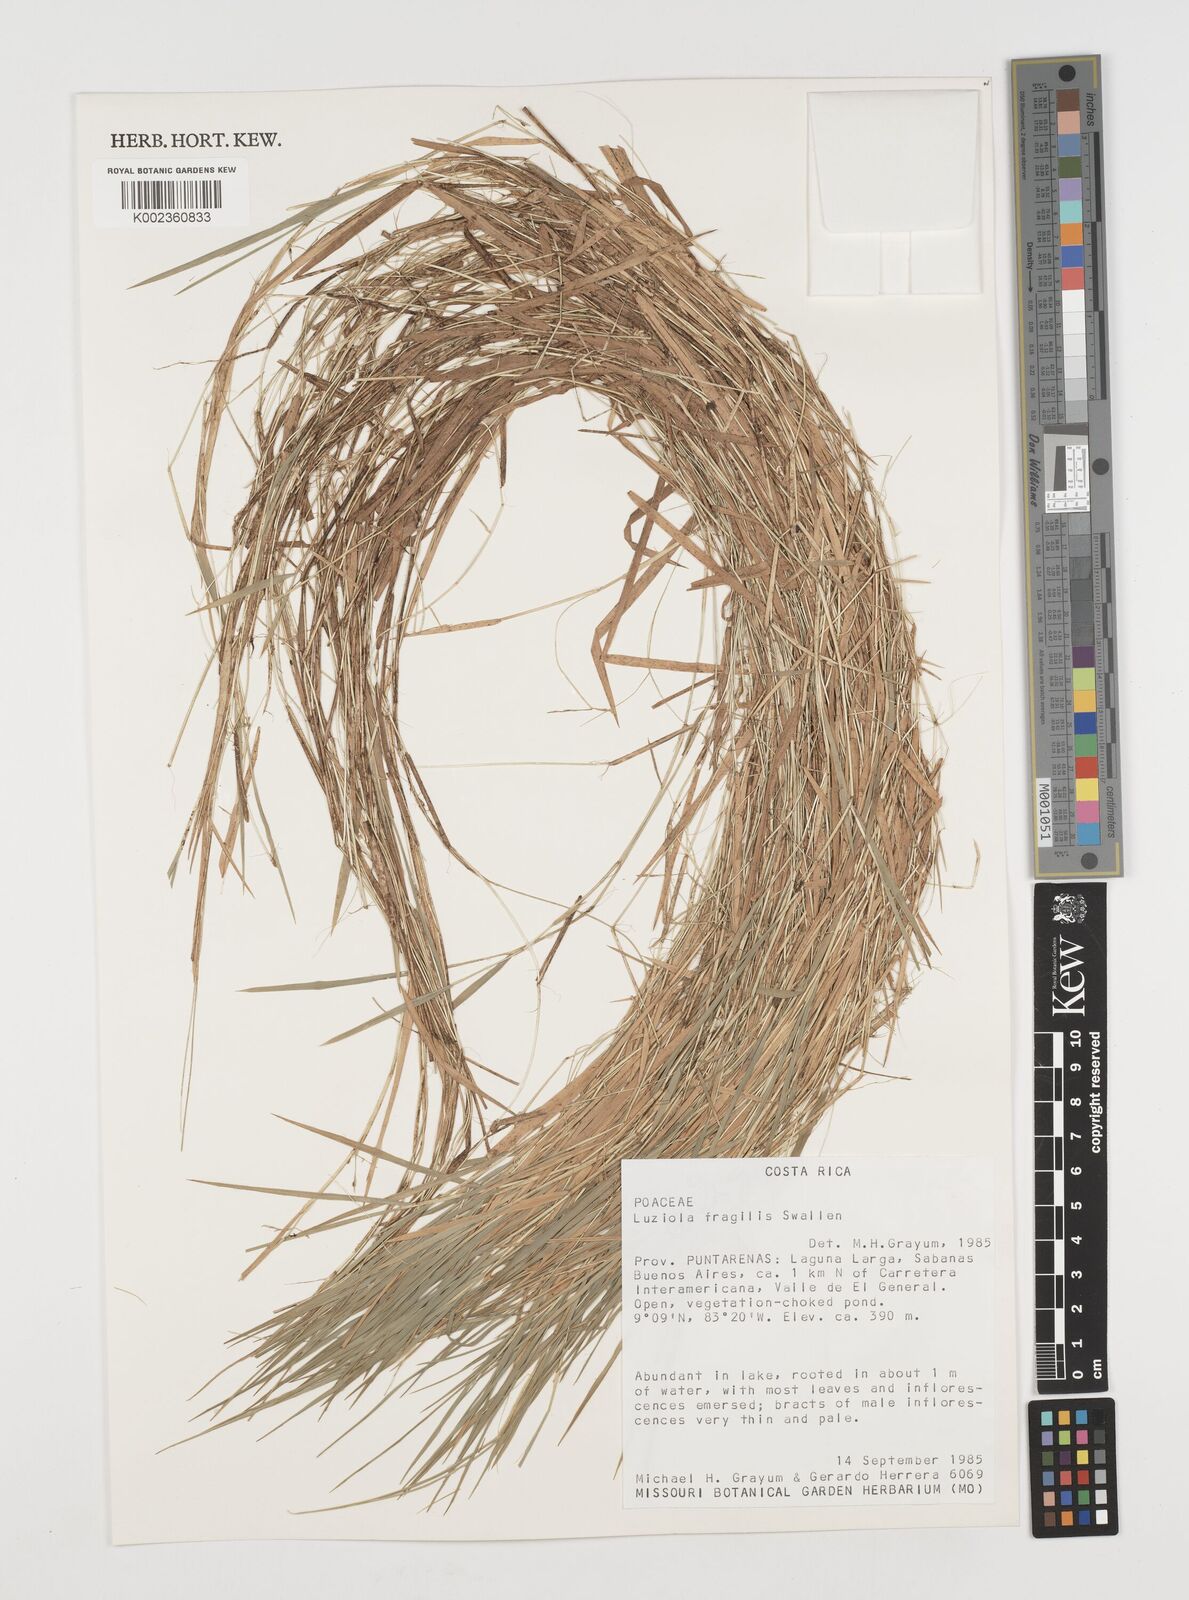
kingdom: Plantae
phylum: Tracheophyta
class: Liliopsida
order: Poales
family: Poaceae
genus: Luziola
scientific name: Luziola fragilis
